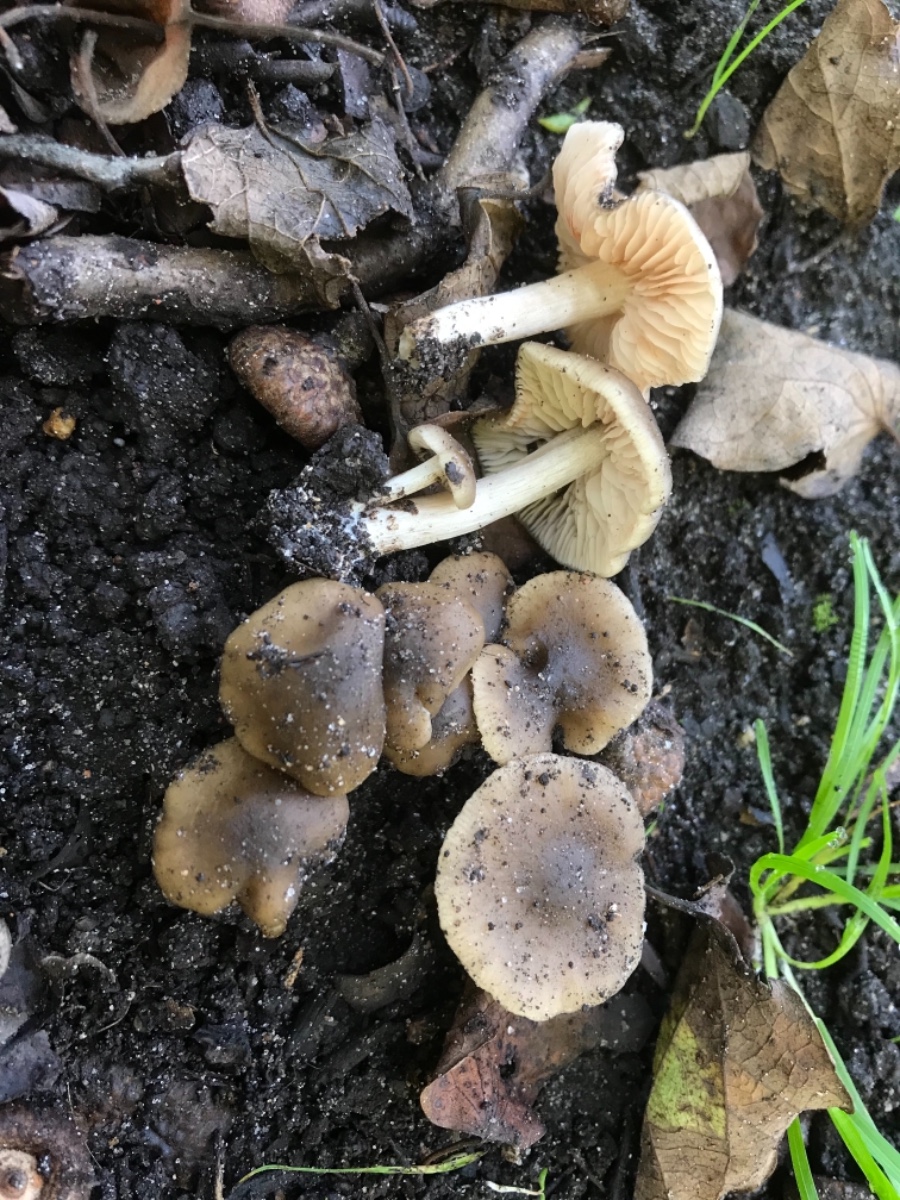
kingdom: Fungi
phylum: Basidiomycota
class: Agaricomycetes
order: Agaricales
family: Entolomataceae
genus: Entoloma
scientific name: Entoloma sordidulum
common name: smudsig rødblad
